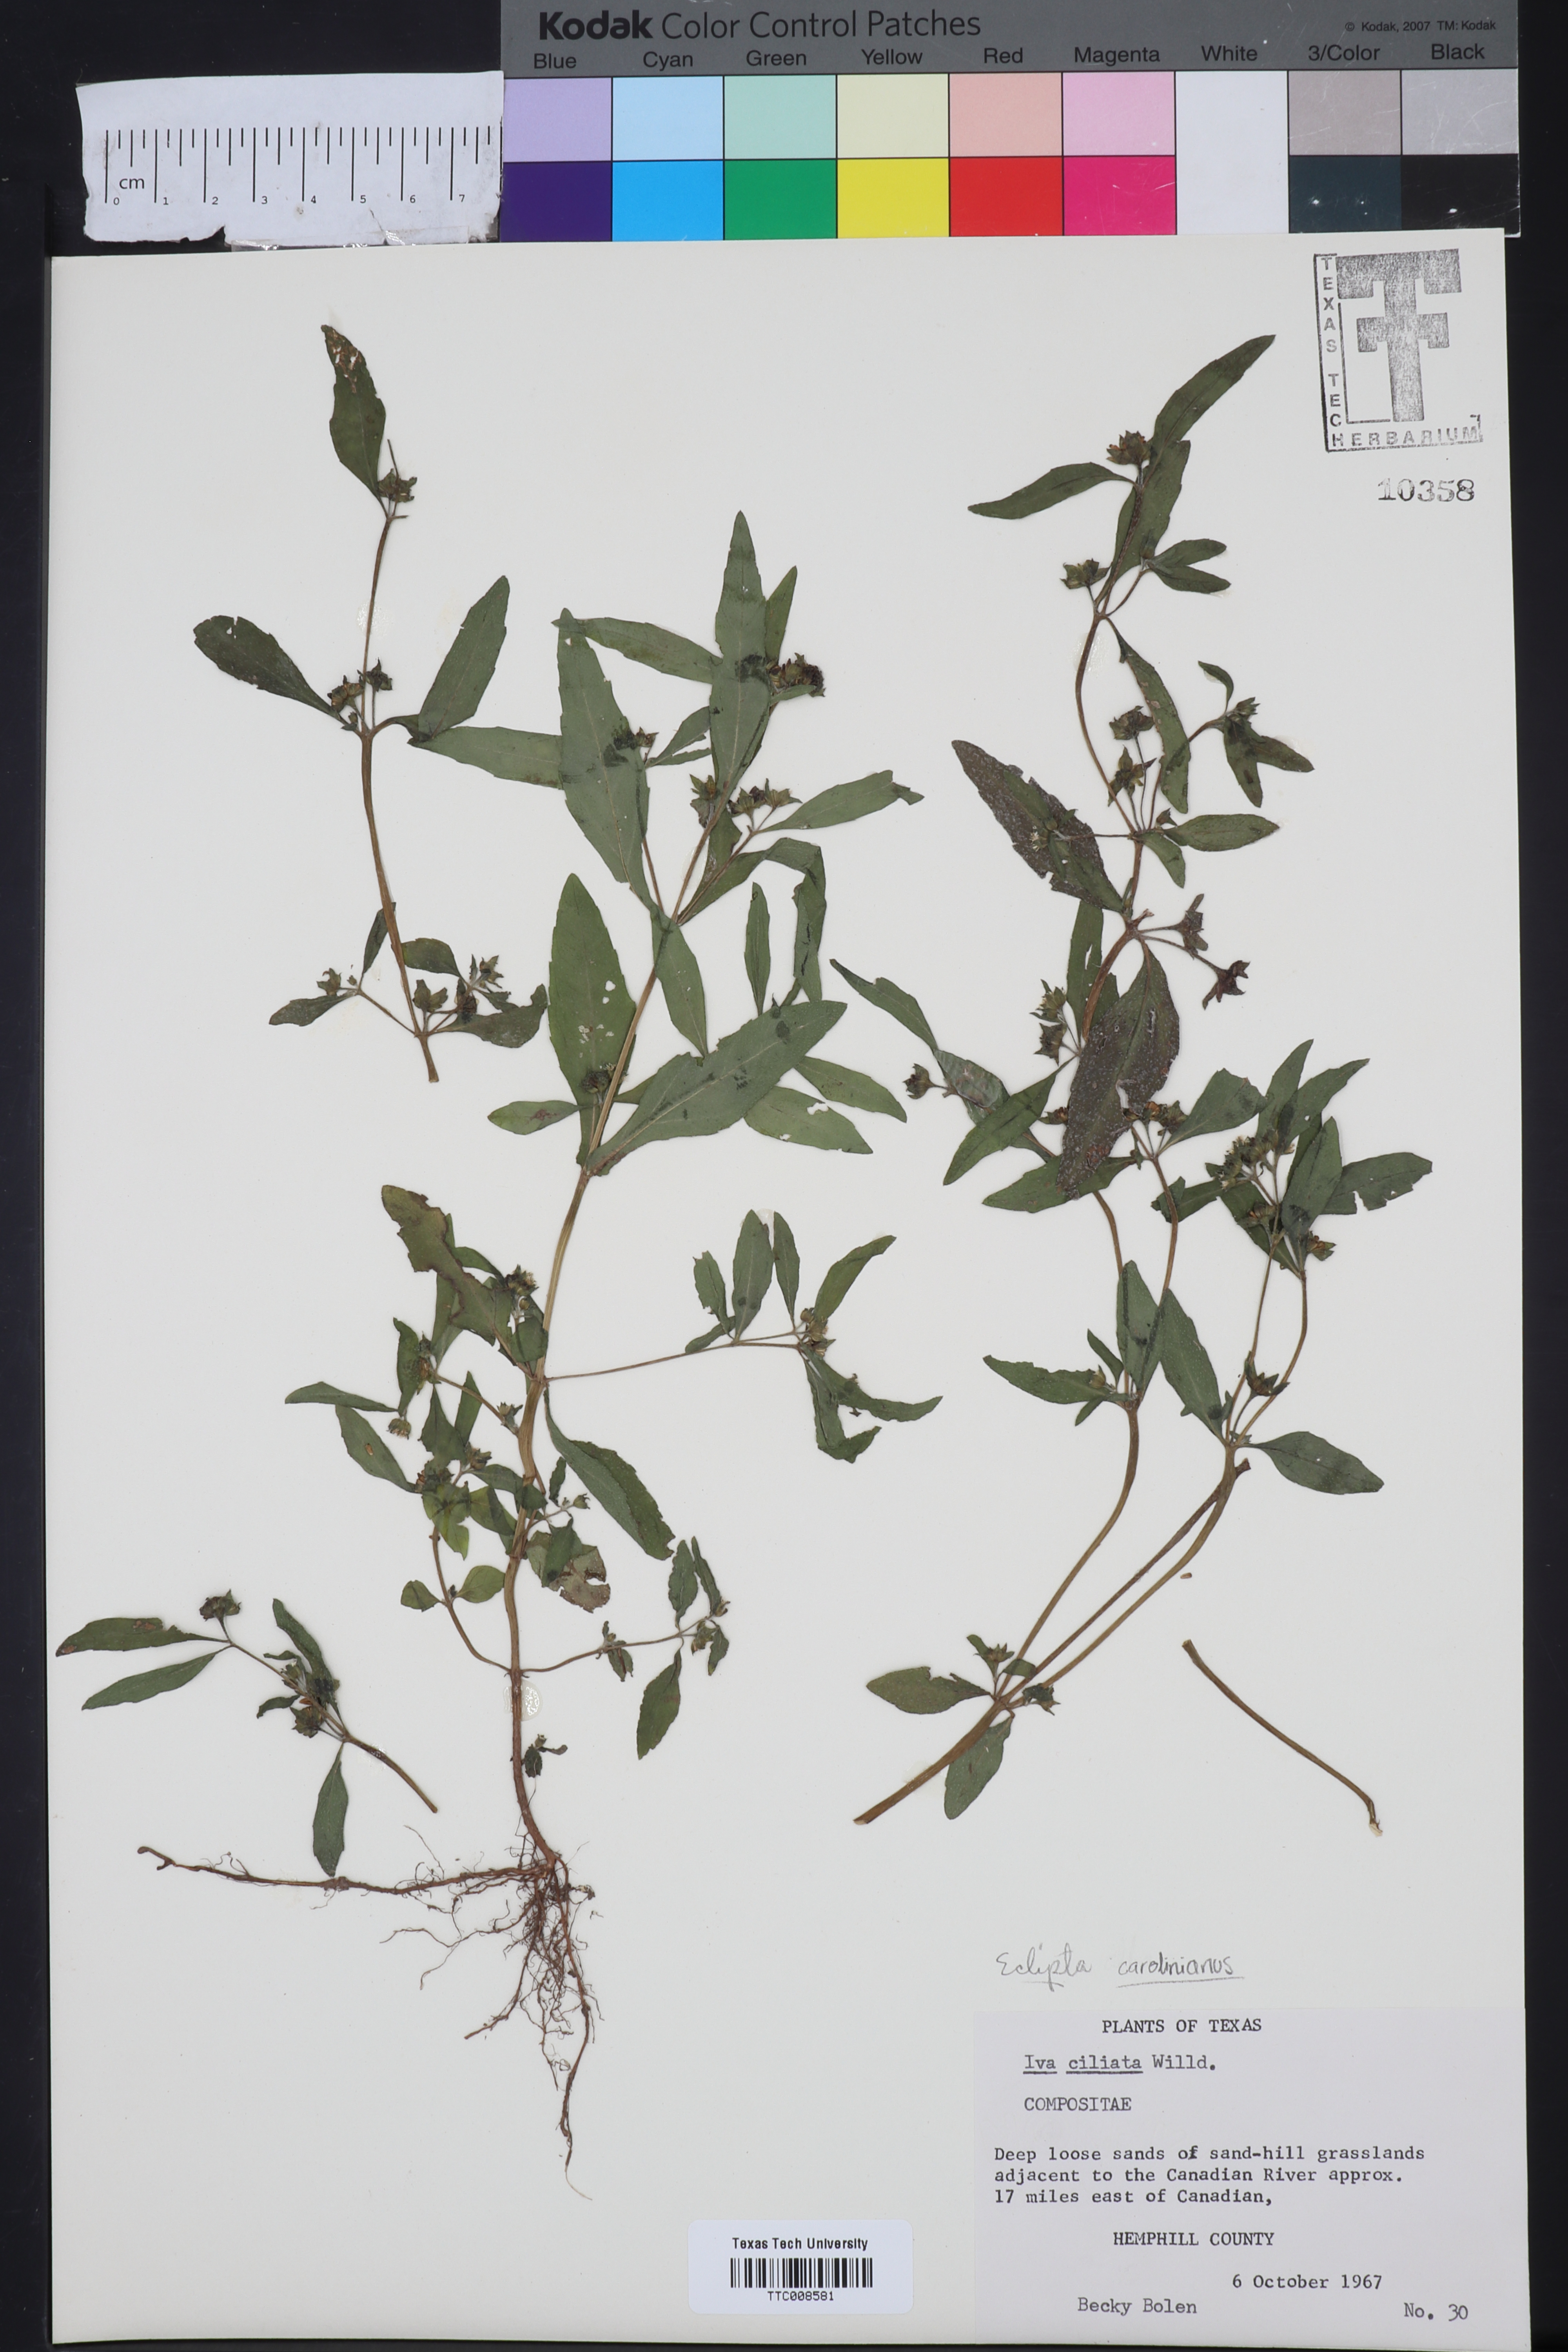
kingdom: Plantae
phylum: Tracheophyta
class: Magnoliopsida
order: Asterales
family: Asteraceae
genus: Eclipta
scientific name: Eclipta alba
